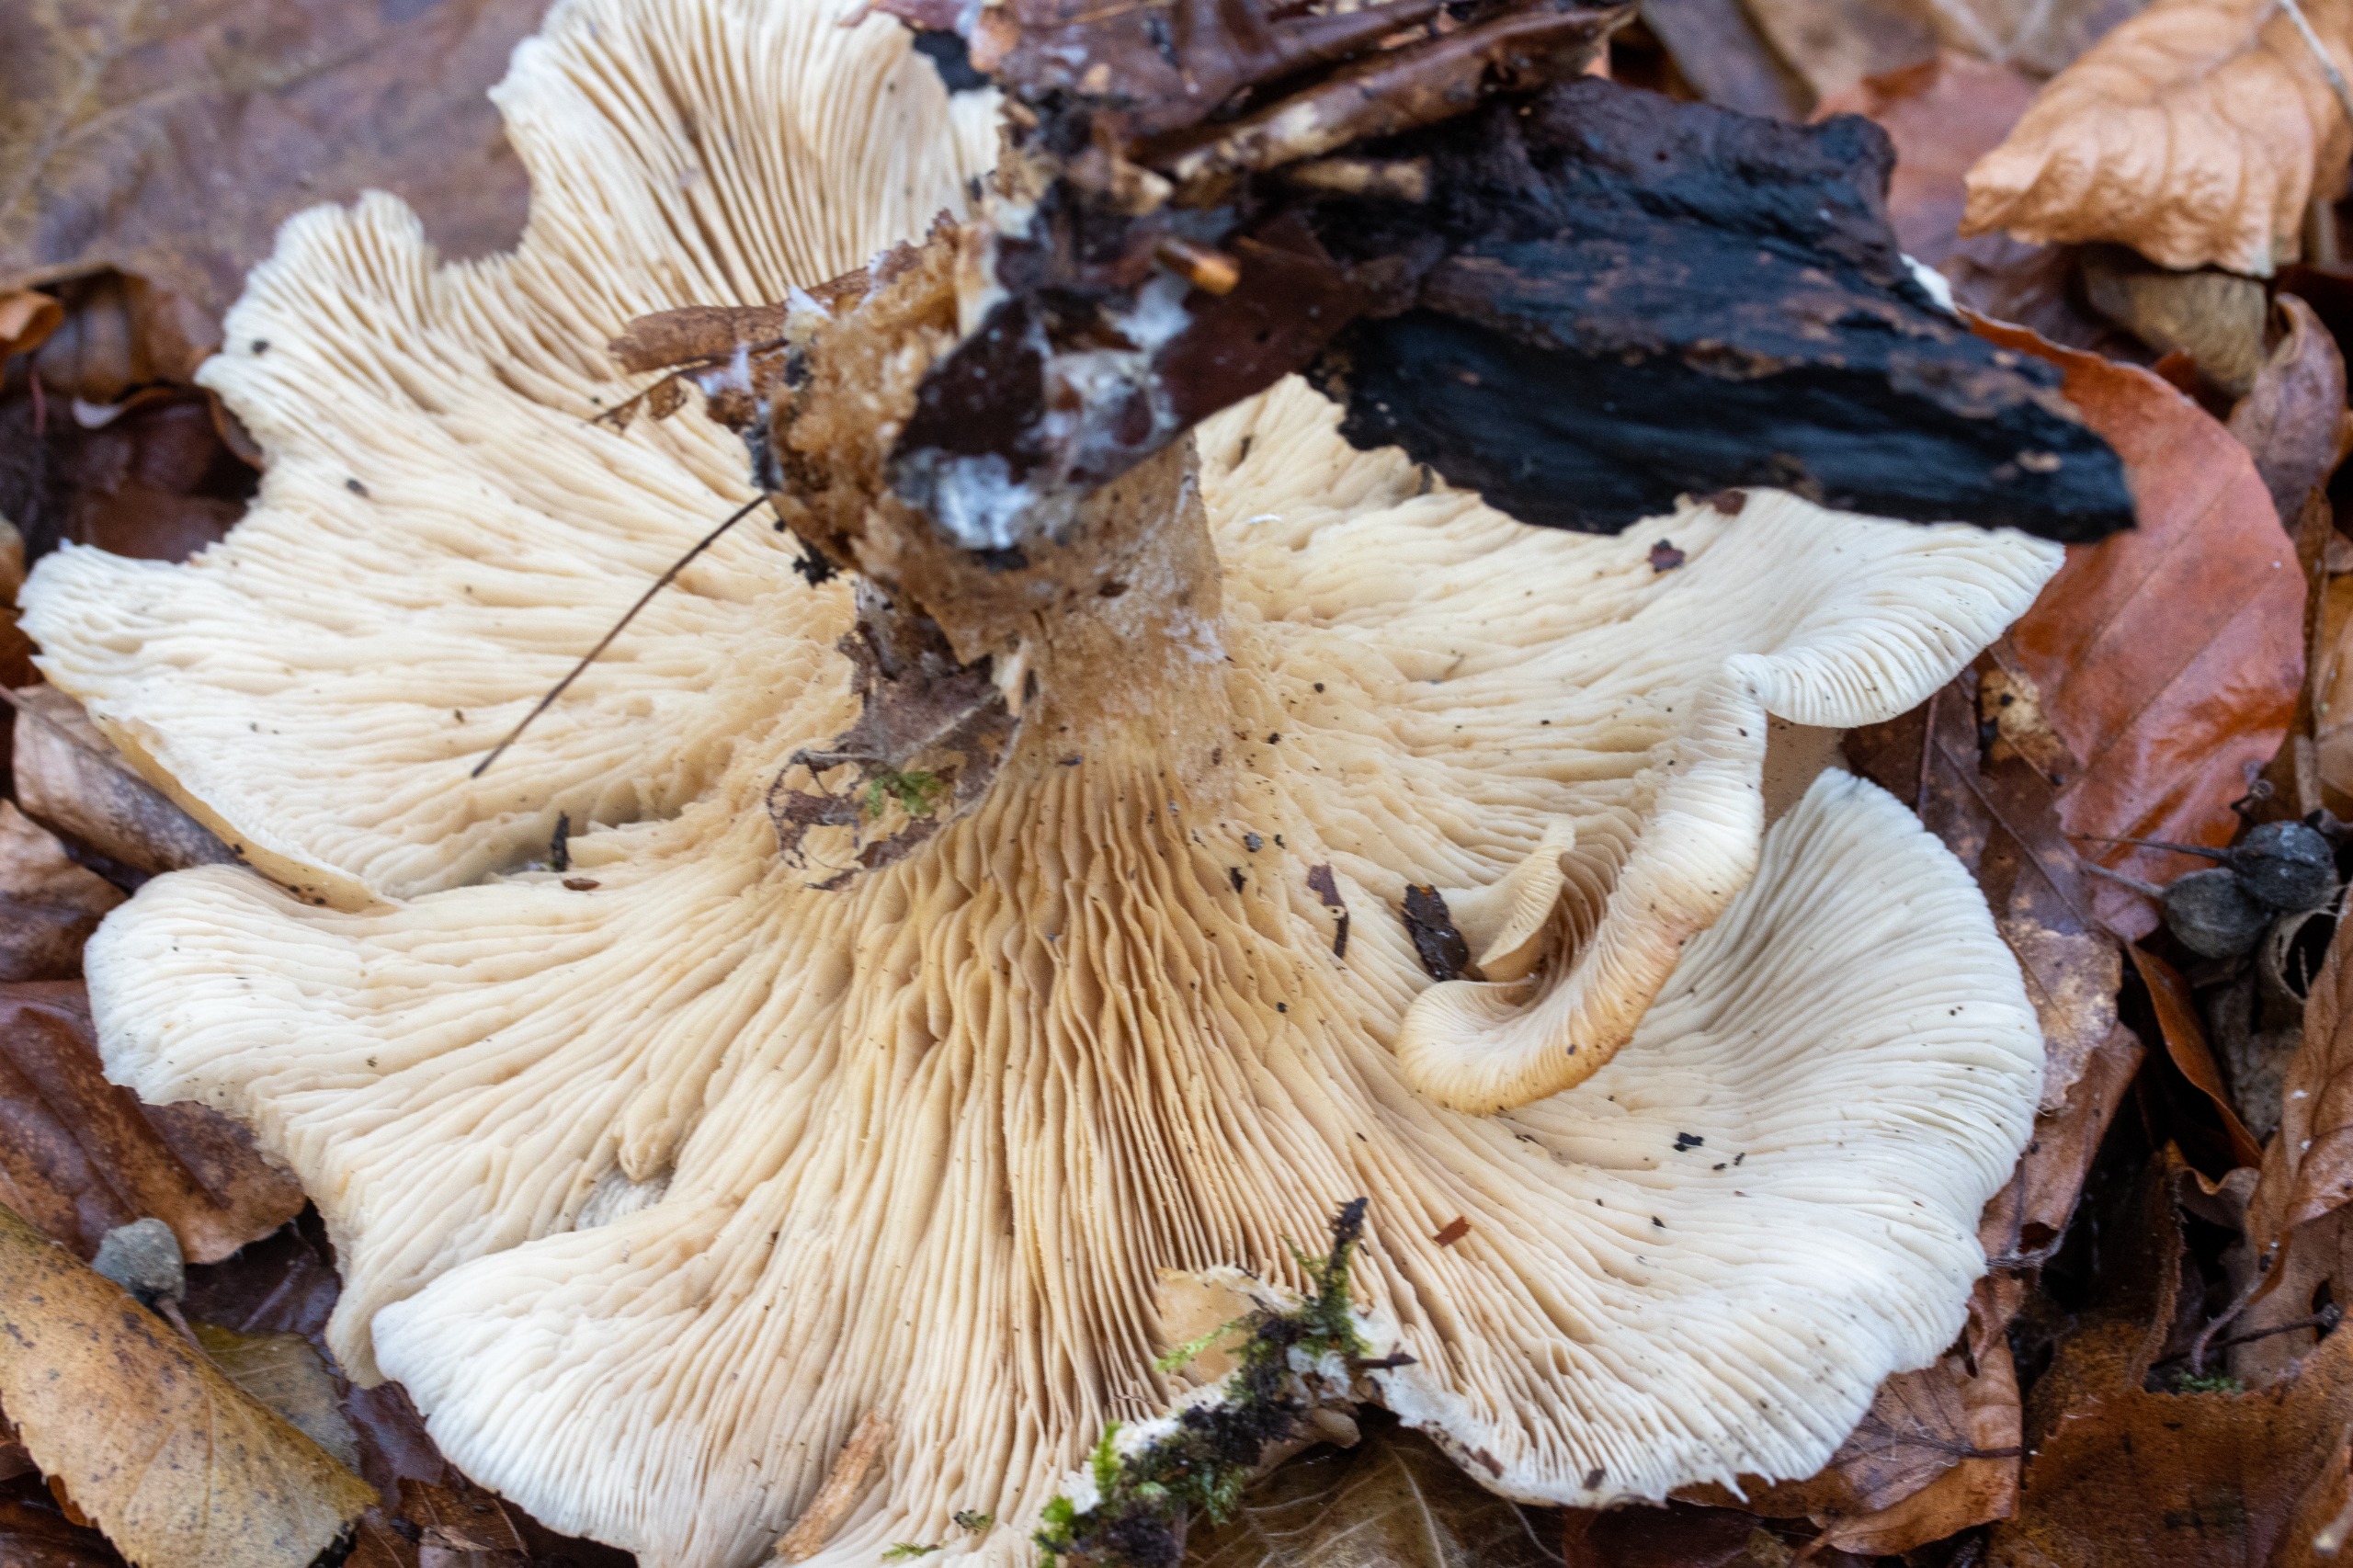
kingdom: Fungi
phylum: Basidiomycota
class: Agaricomycetes
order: Agaricales
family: Tricholomataceae
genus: Clitocybe
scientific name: Clitocybe nebularis
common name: Tåge-tragthat
